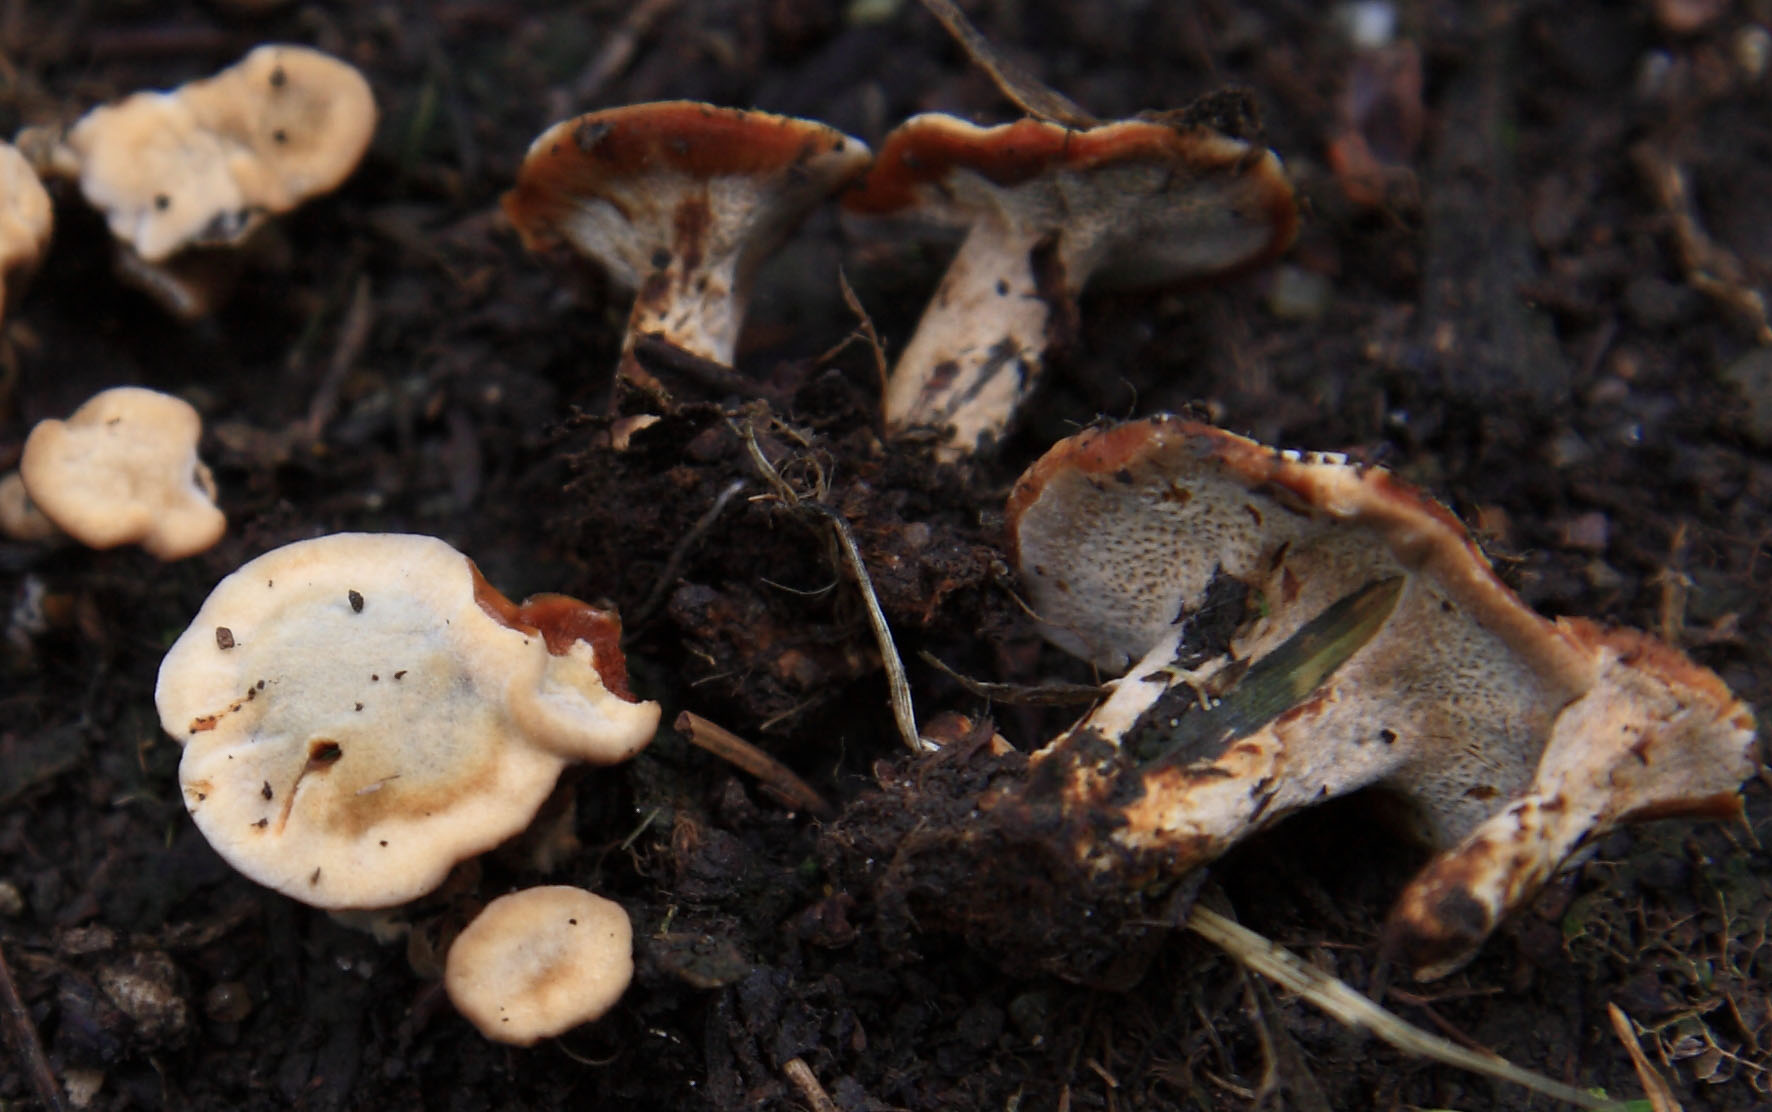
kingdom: Fungi
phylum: Basidiomycota
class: Agaricomycetes
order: Hymenochaetales
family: Hymenochaetaceae
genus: Coltricia
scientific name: Coltricia confluens
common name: park-sandporesvamp
